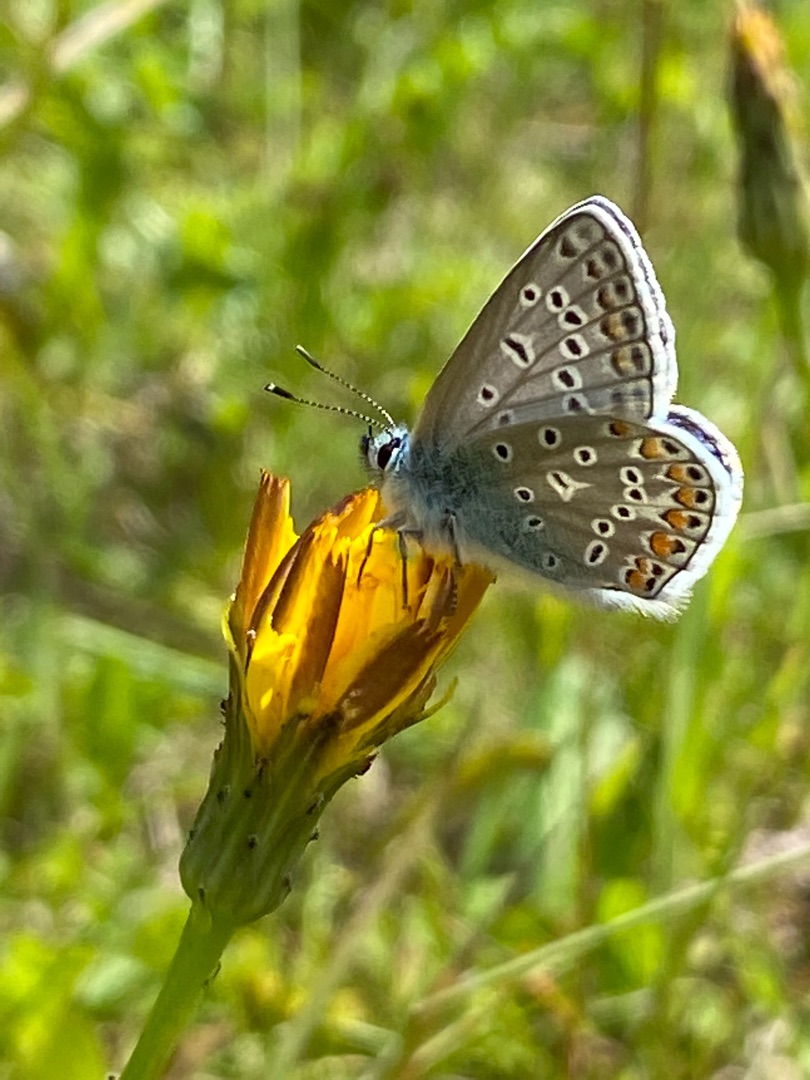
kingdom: Animalia
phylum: Arthropoda
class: Insecta
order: Lepidoptera
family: Lycaenidae
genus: Polyommatus
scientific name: Polyommatus icarus
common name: Almindelig blåfugl
